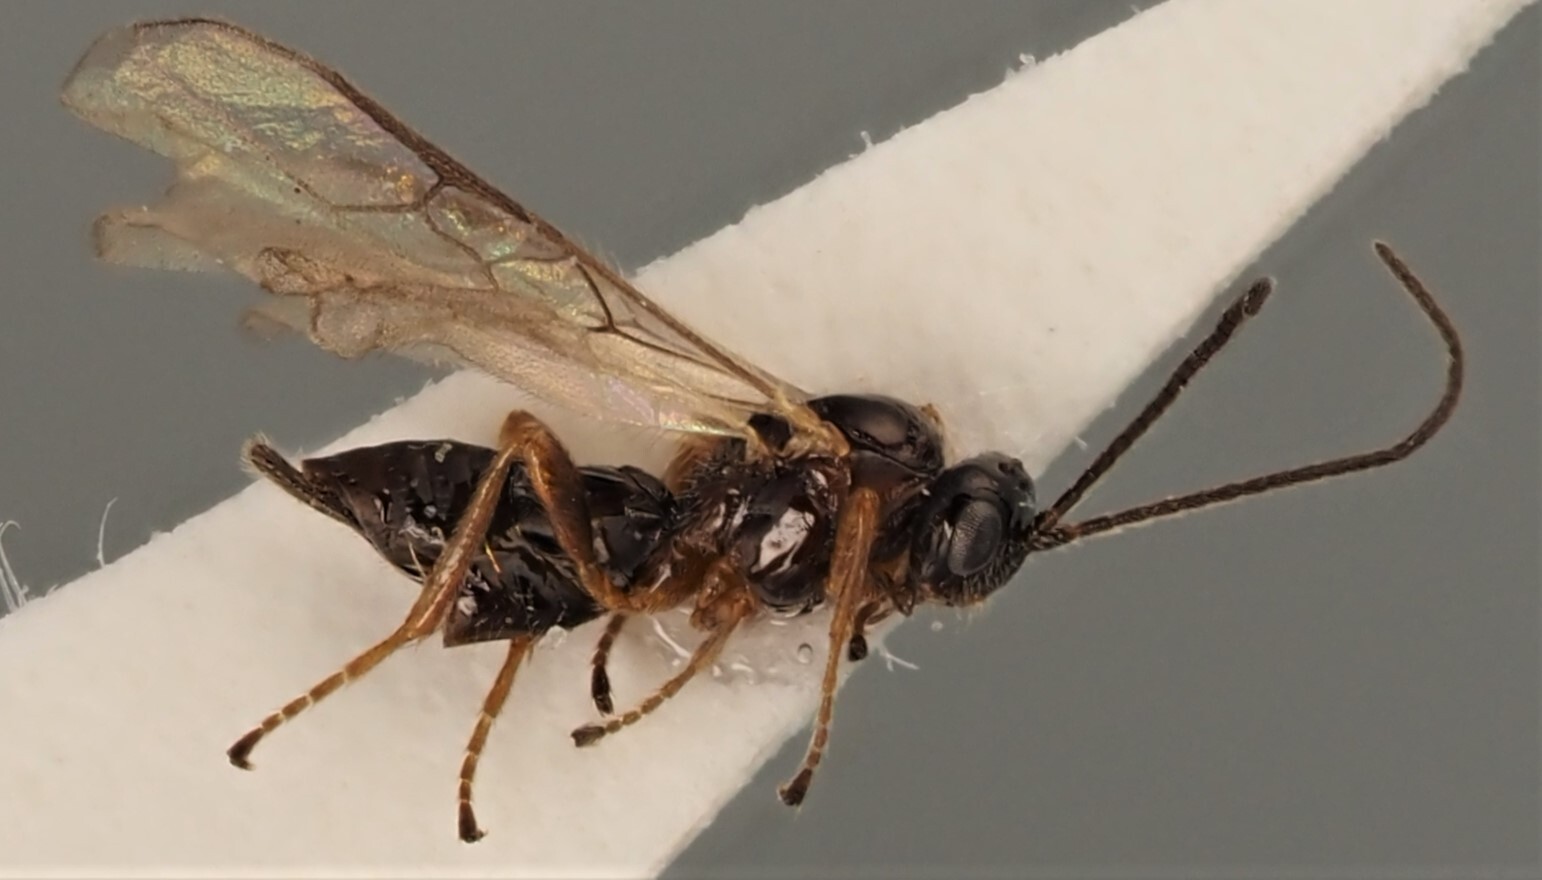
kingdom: Animalia
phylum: Arthropoda
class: Insecta
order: Hymenoptera
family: Braconidae
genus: Biosteres
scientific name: Biosteres caudatulus
